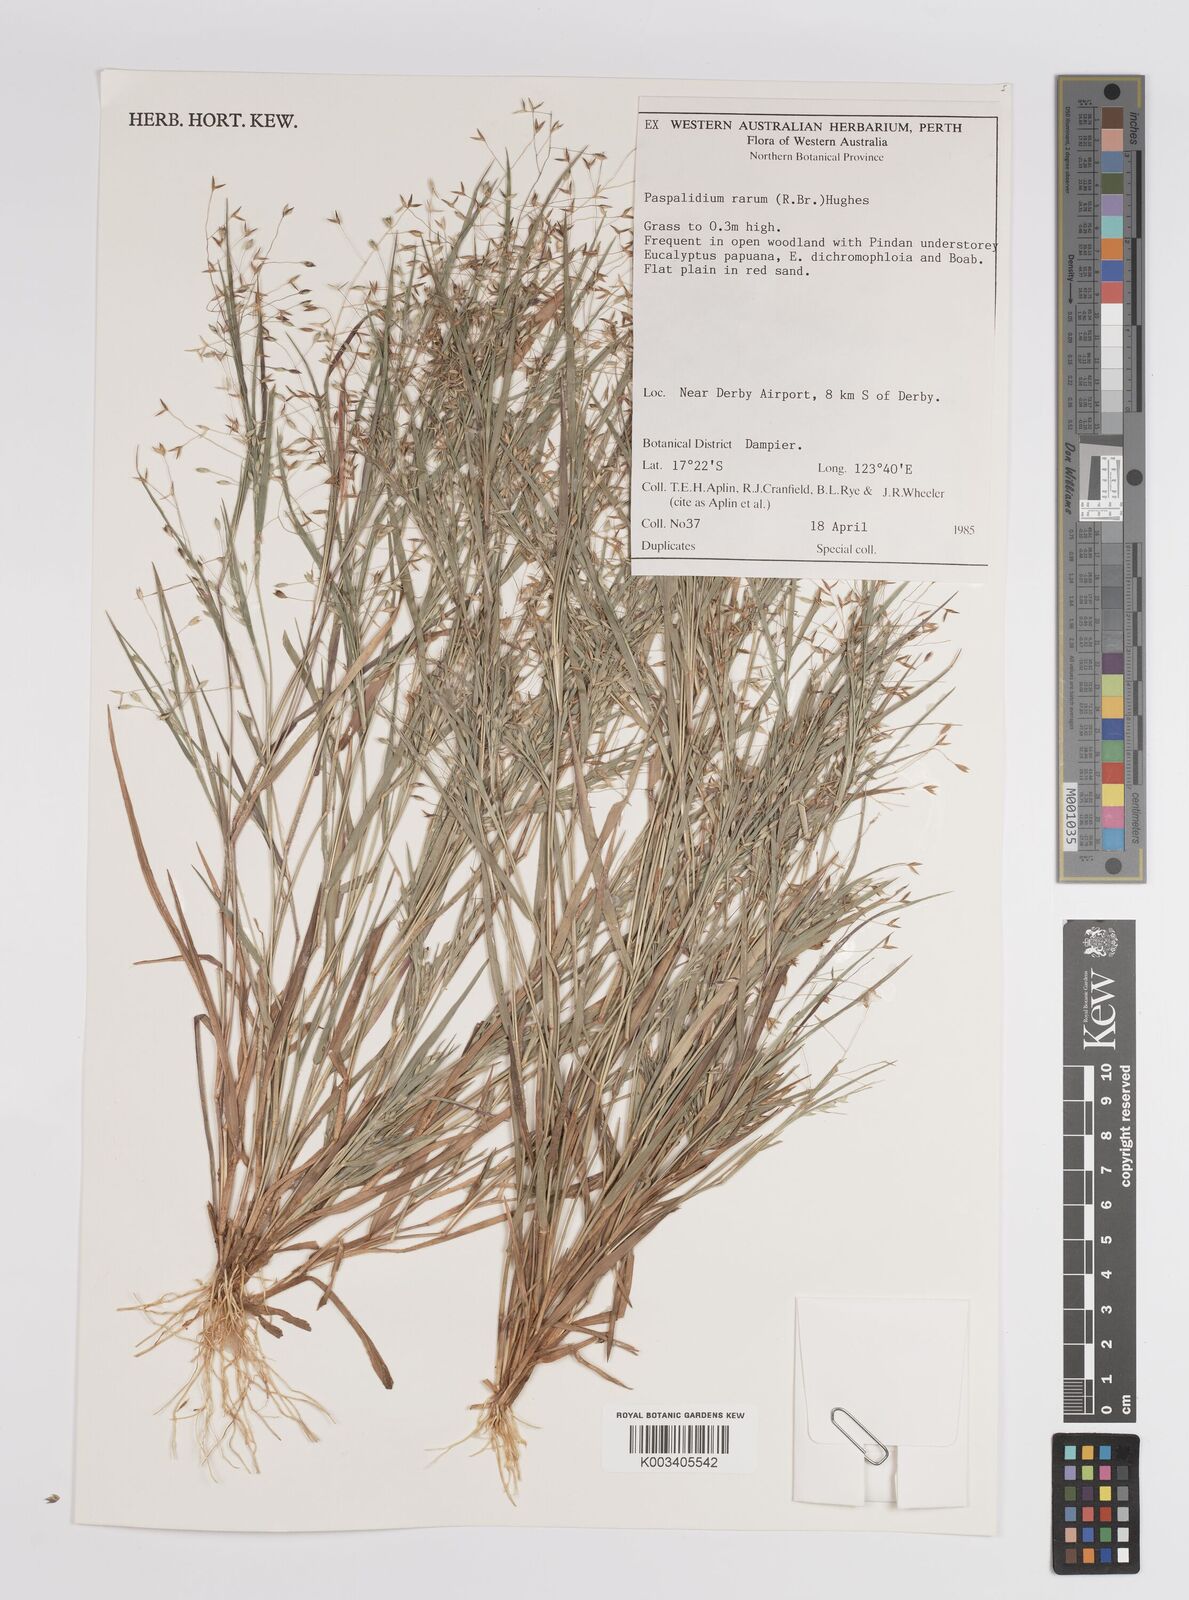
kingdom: Plantae
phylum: Tracheophyta
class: Liliopsida
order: Poales
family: Poaceae
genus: Panicum
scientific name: Panicum
